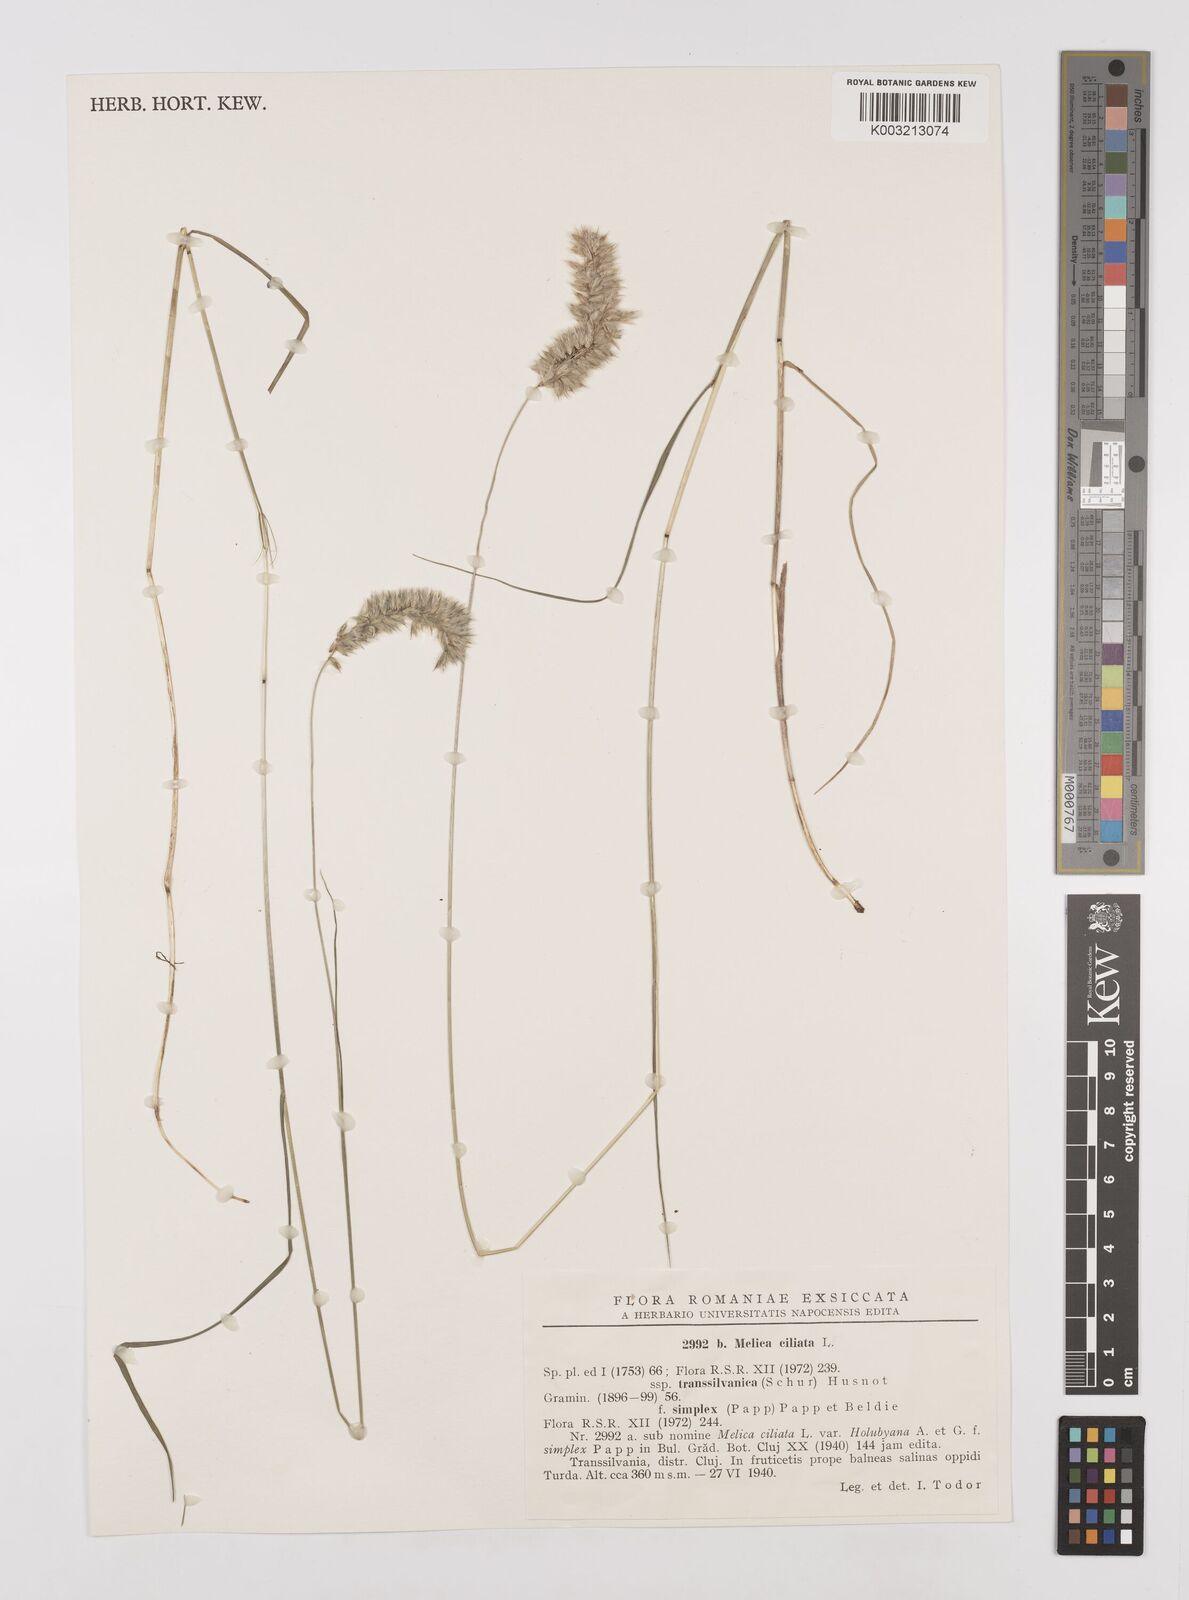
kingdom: Plantae
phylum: Tracheophyta
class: Liliopsida
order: Poales
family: Poaceae
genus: Melica
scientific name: Melica ciliata
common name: Hairy melicgrass
